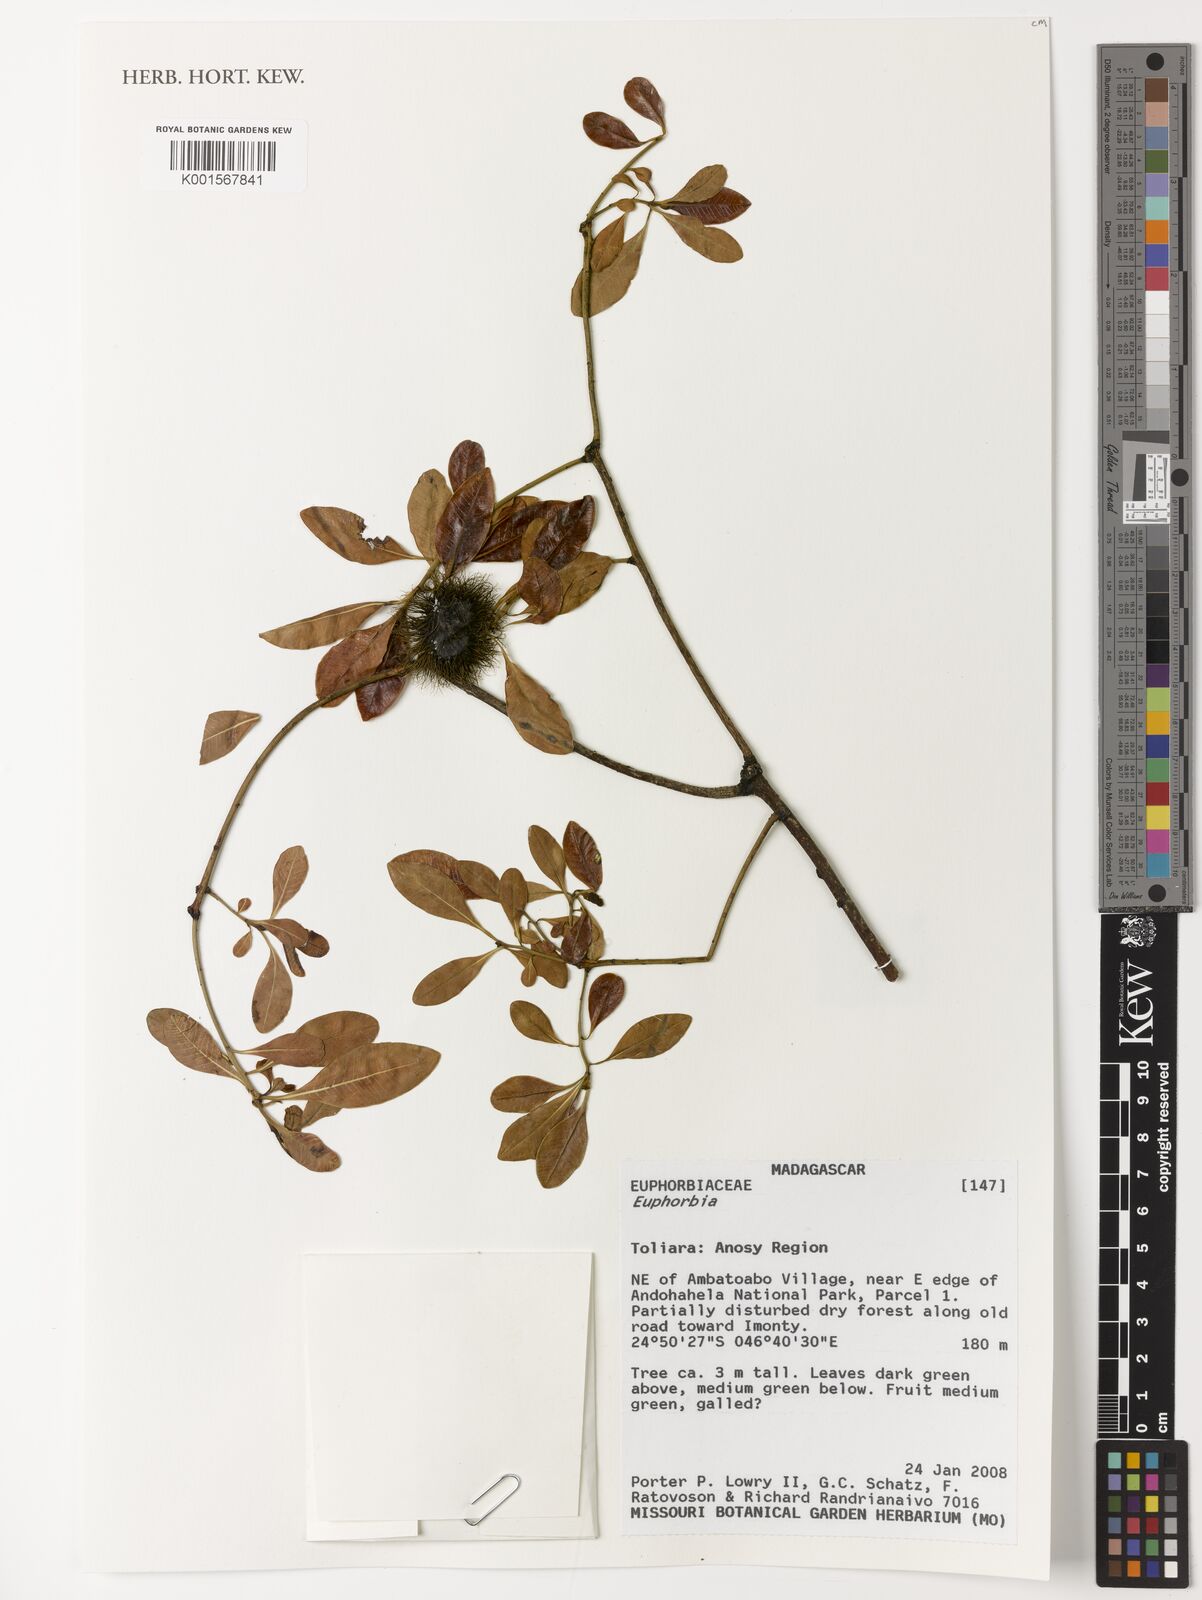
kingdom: Plantae
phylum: Tracheophyta
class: Magnoliopsida
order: Malpighiales
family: Euphorbiaceae
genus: Euphorbia
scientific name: Euphorbia
